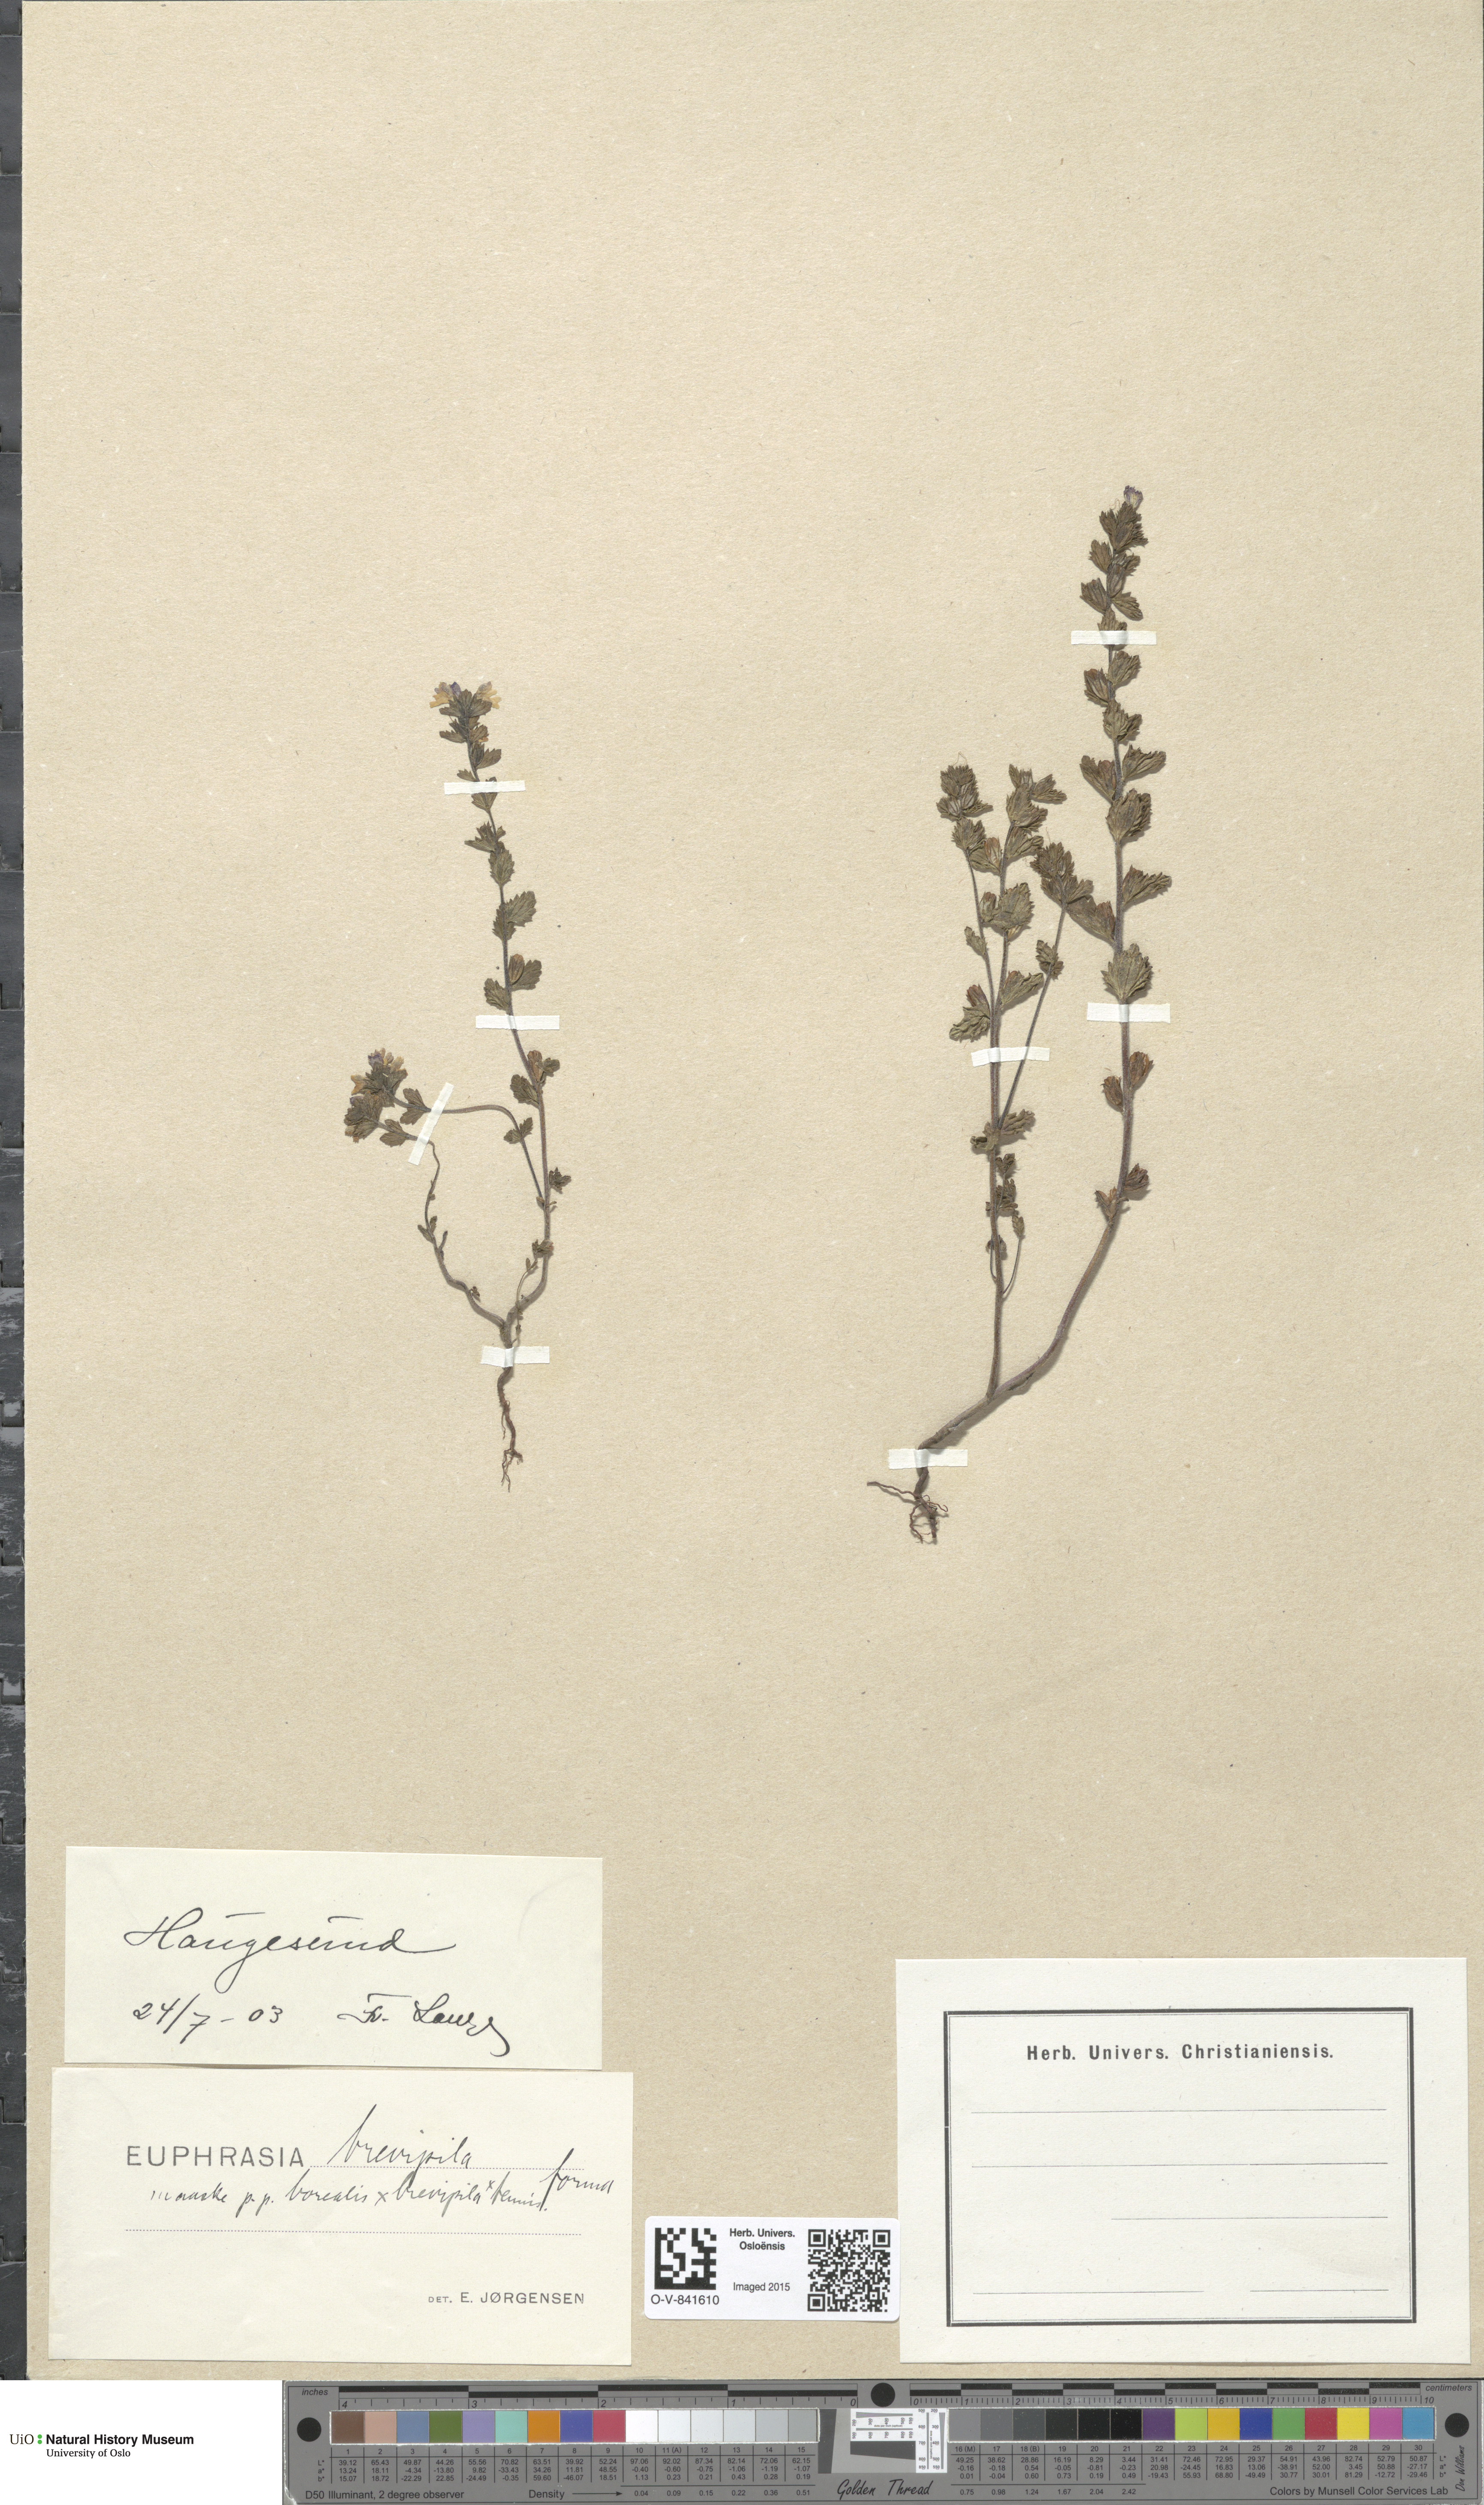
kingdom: Plantae
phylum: Tracheophyta
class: Magnoliopsida
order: Lamiales
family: Orobanchaceae
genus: Euphrasia
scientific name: Euphrasia vernalis
